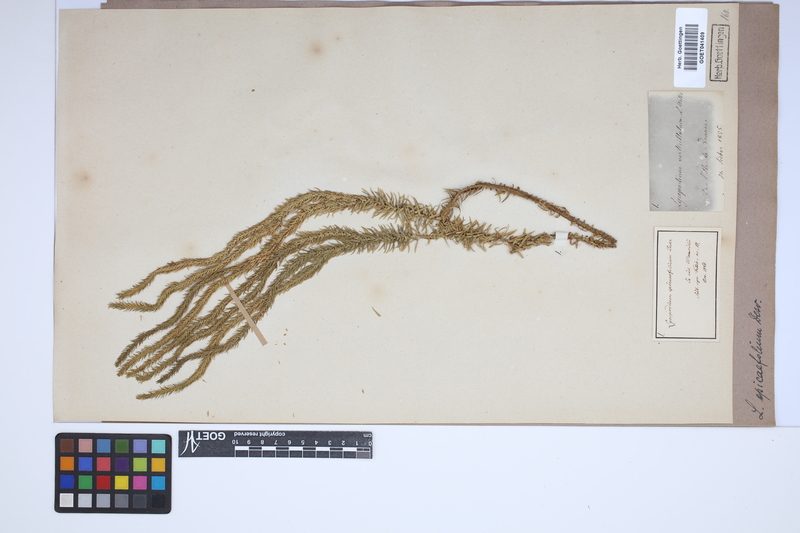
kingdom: Plantae
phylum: Tracheophyta
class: Lycopodiopsida
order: Lycopodiales
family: Lycopodiaceae
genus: Phlegmariurus
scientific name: Phlegmariurus squarrosus
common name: Rock tassel-fern
